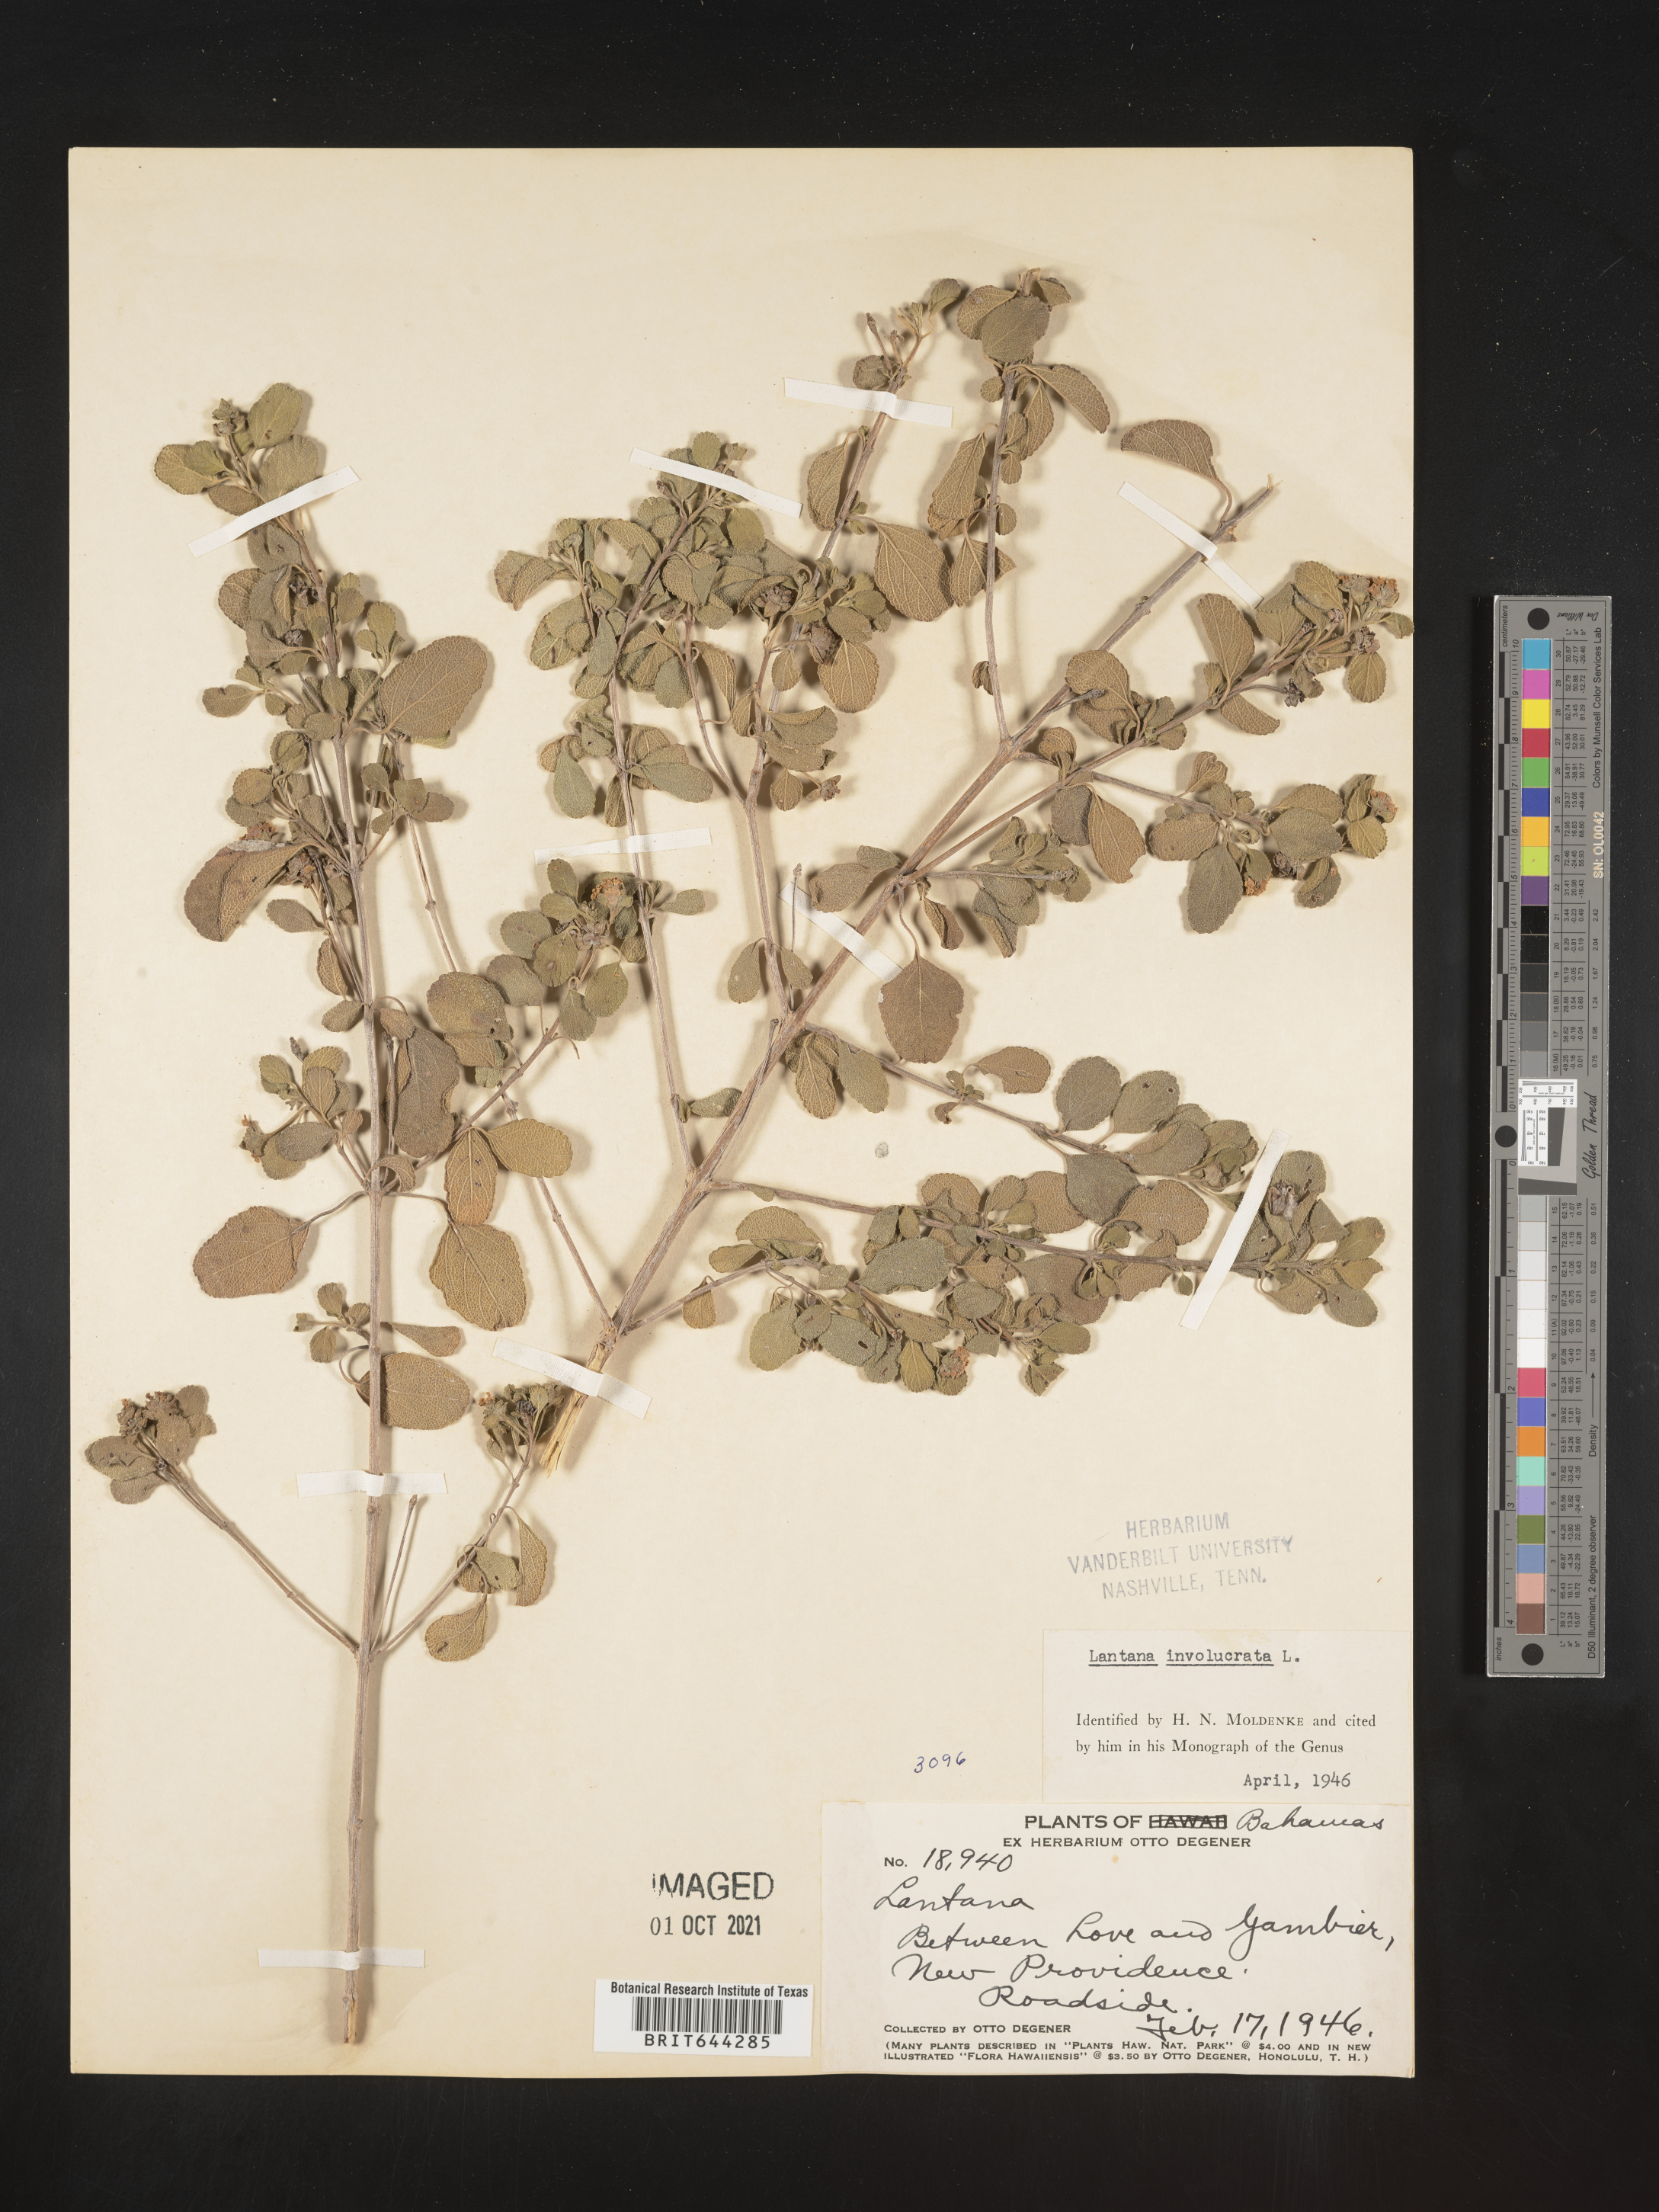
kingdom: Plantae
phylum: Tracheophyta
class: Magnoliopsida
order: Lamiales
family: Verbenaceae
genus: Lantana
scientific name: Lantana
